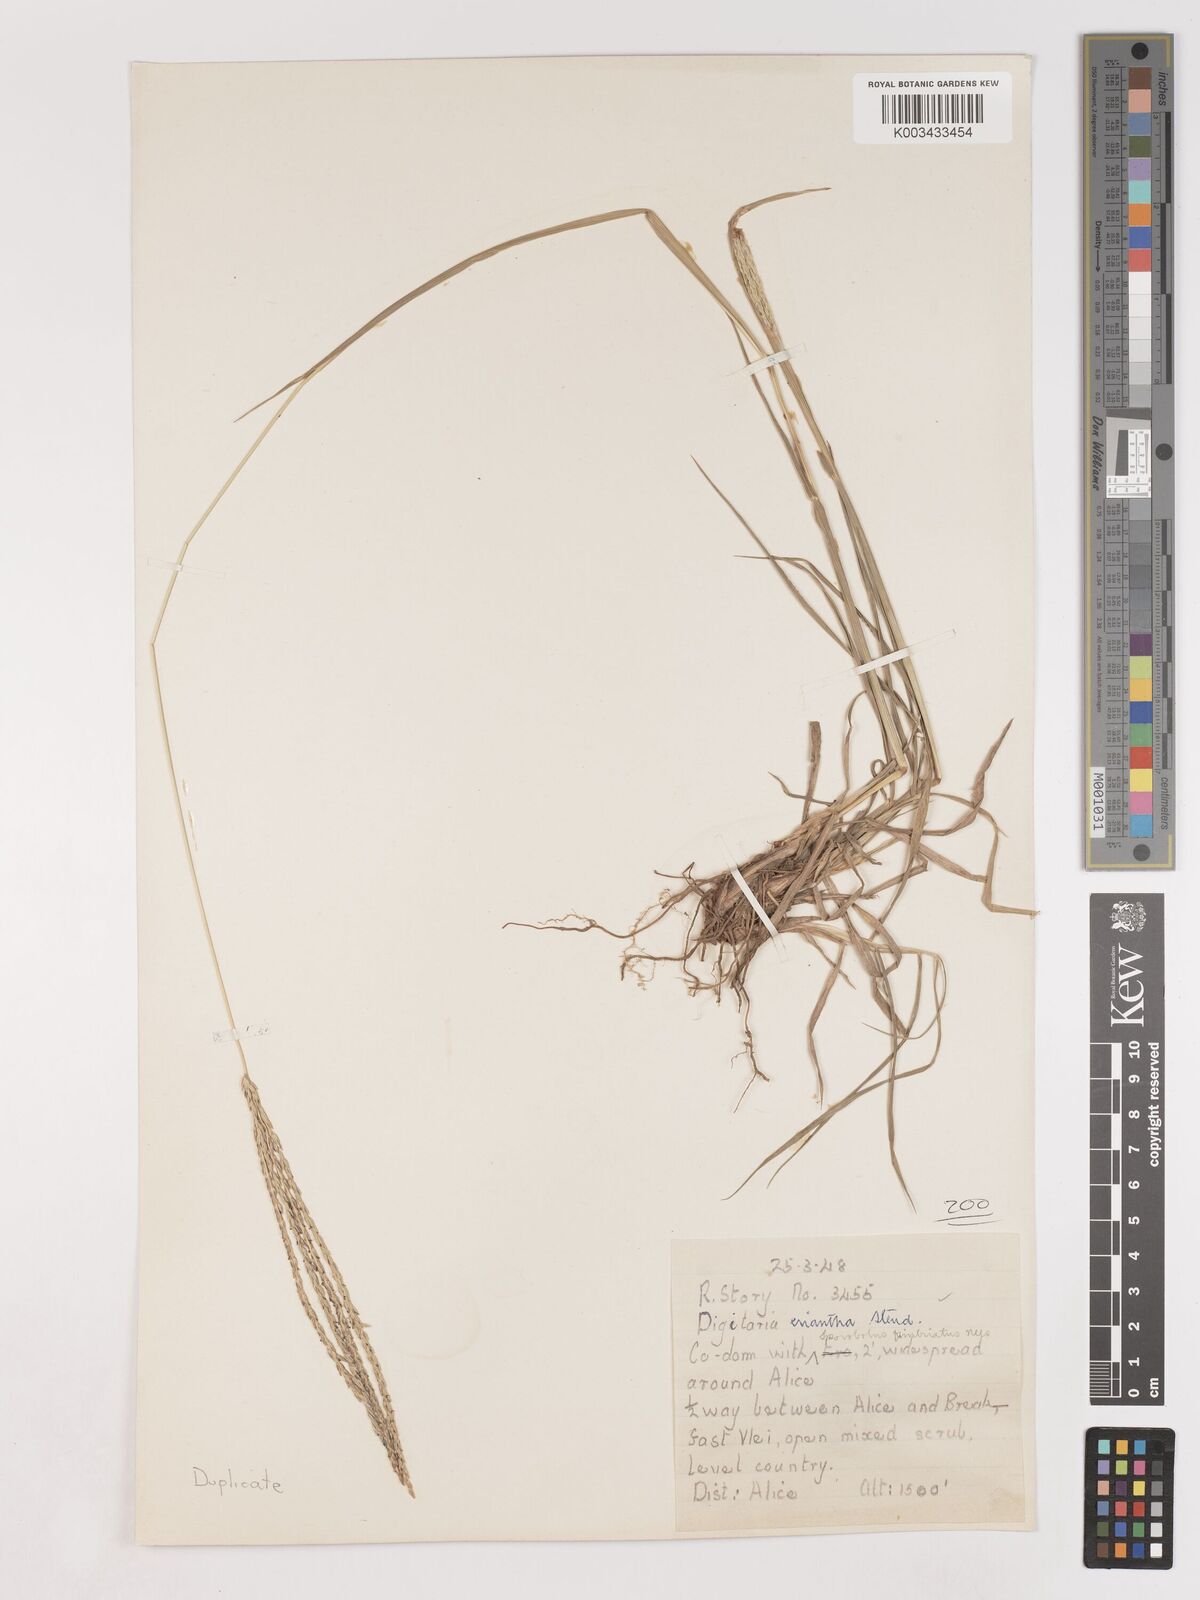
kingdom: Plantae
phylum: Tracheophyta
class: Liliopsida
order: Poales
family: Poaceae
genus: Digitaria
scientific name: Digitaria eriantha
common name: Digitgrass
